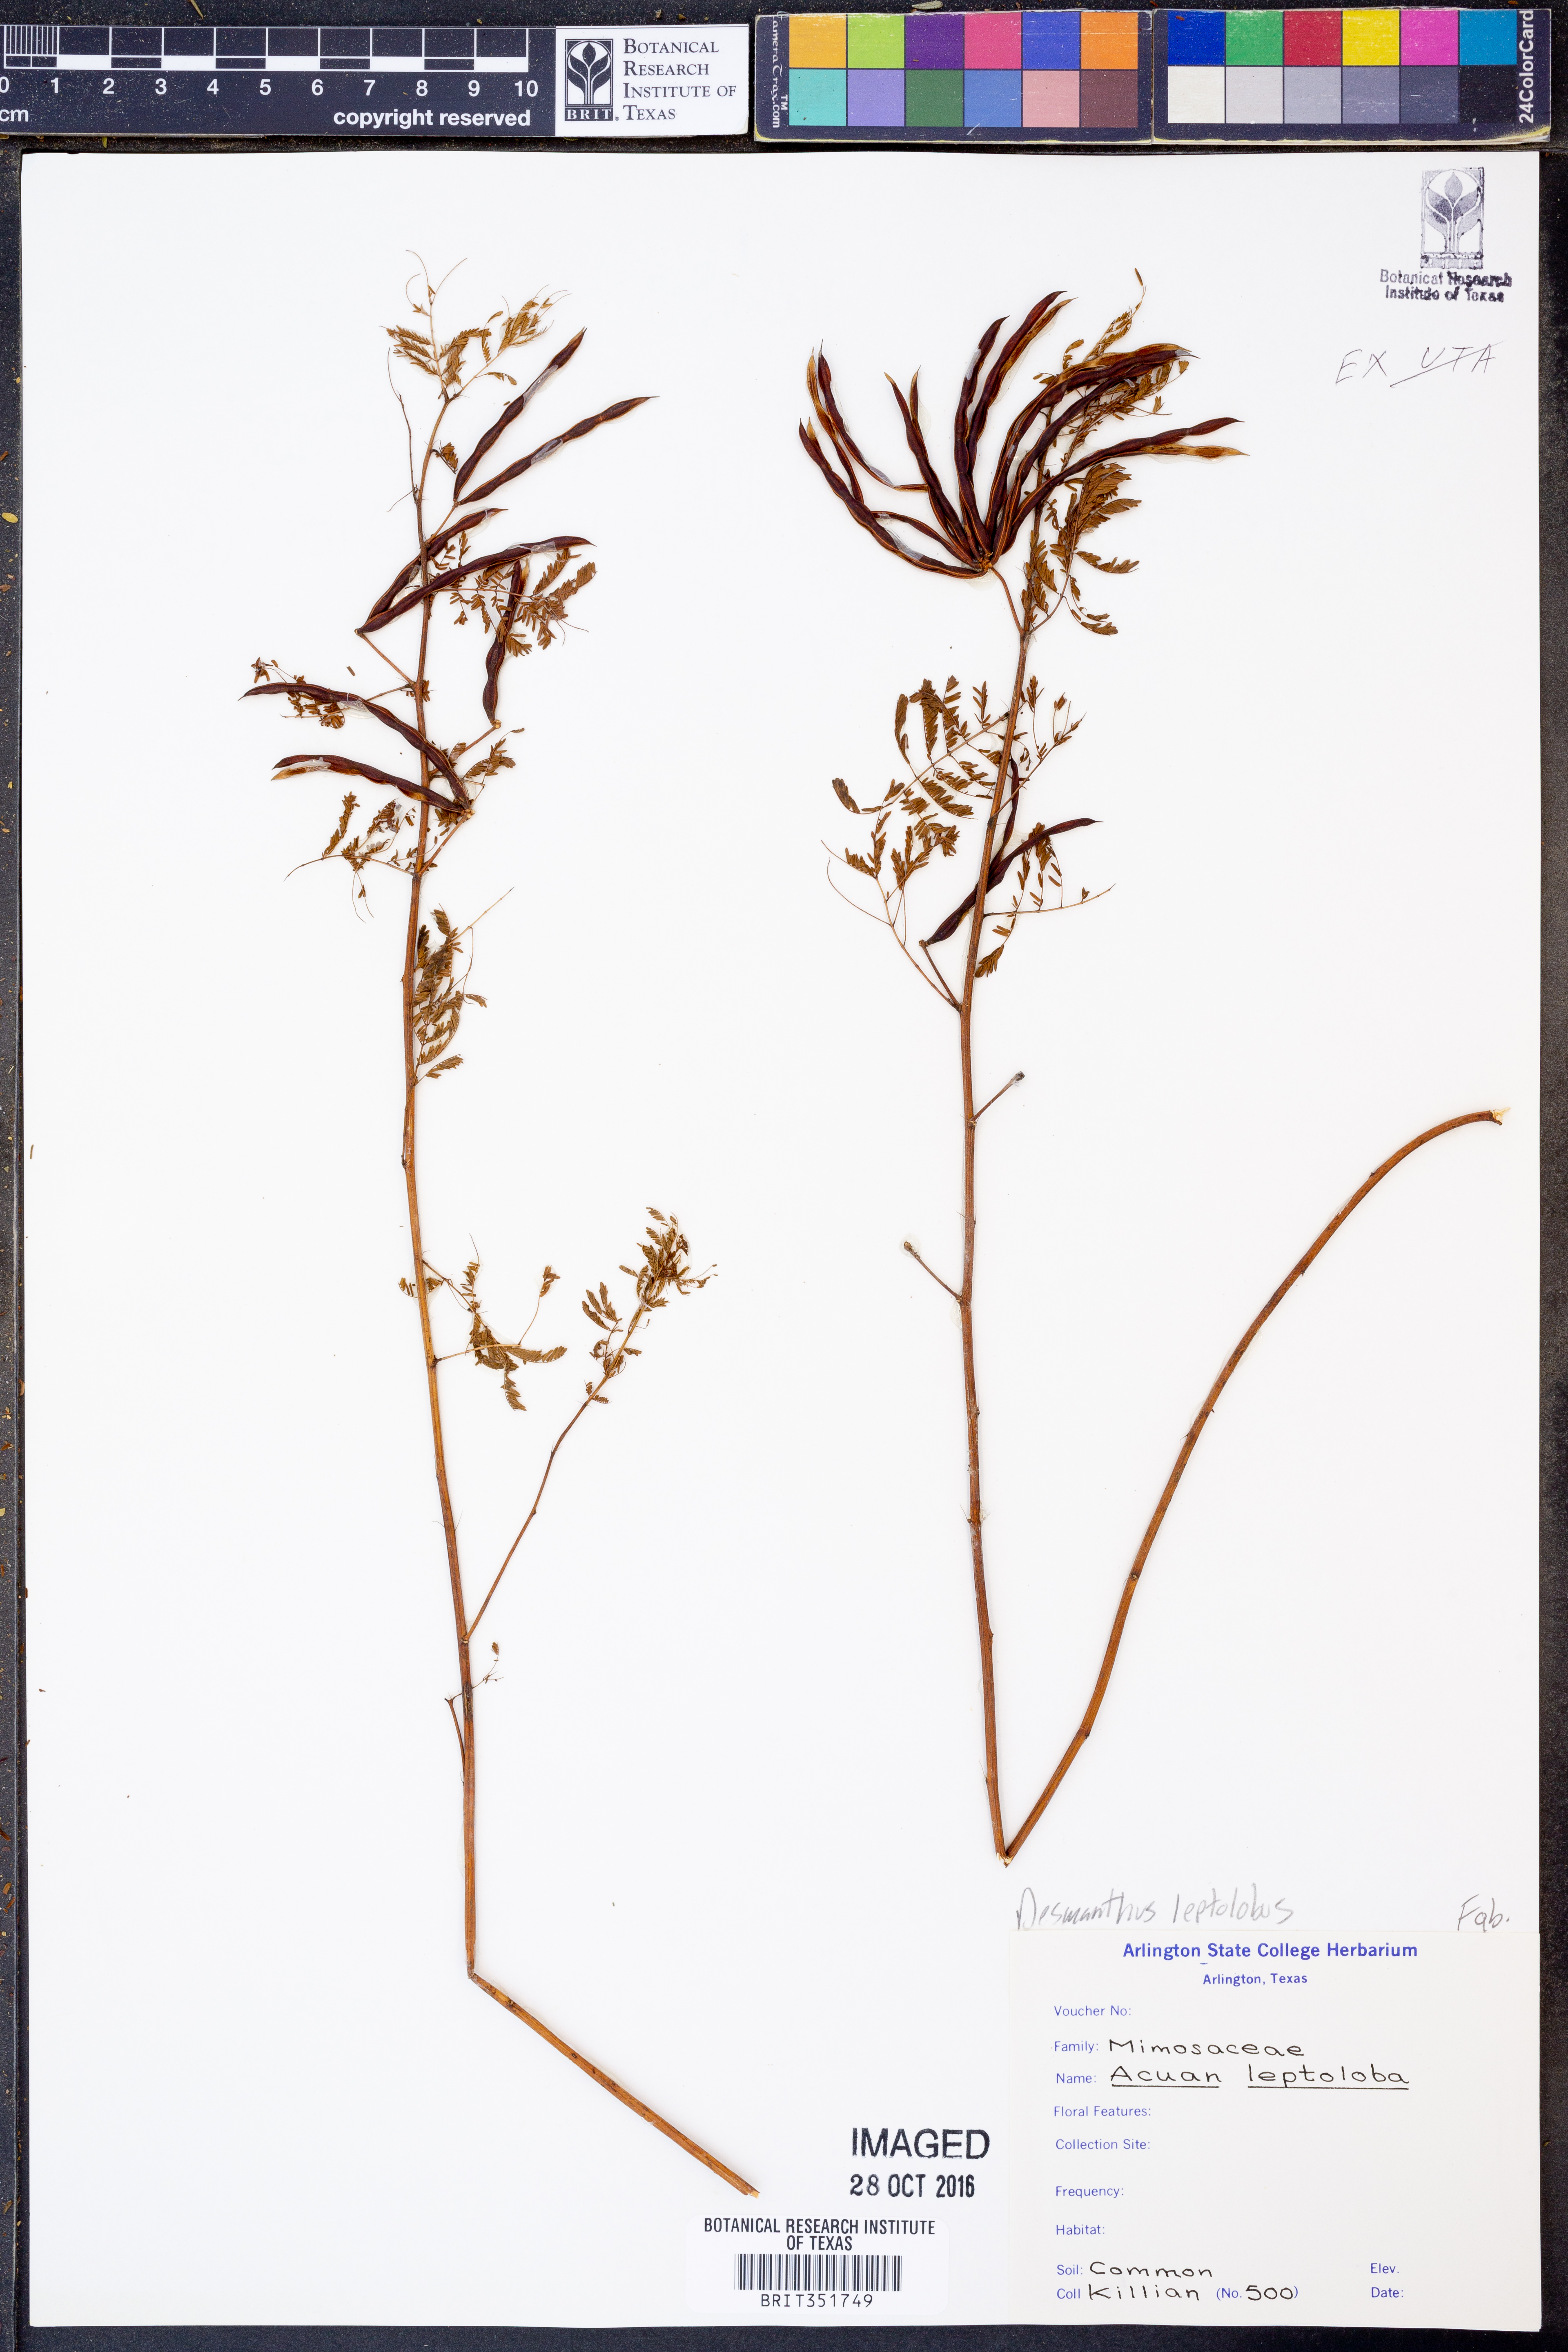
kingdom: Plantae
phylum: Tracheophyta
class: Magnoliopsida
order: Fabales
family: Fabaceae
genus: Desmanthus
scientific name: Desmanthus leptolobus
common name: Prairie-mimosa
